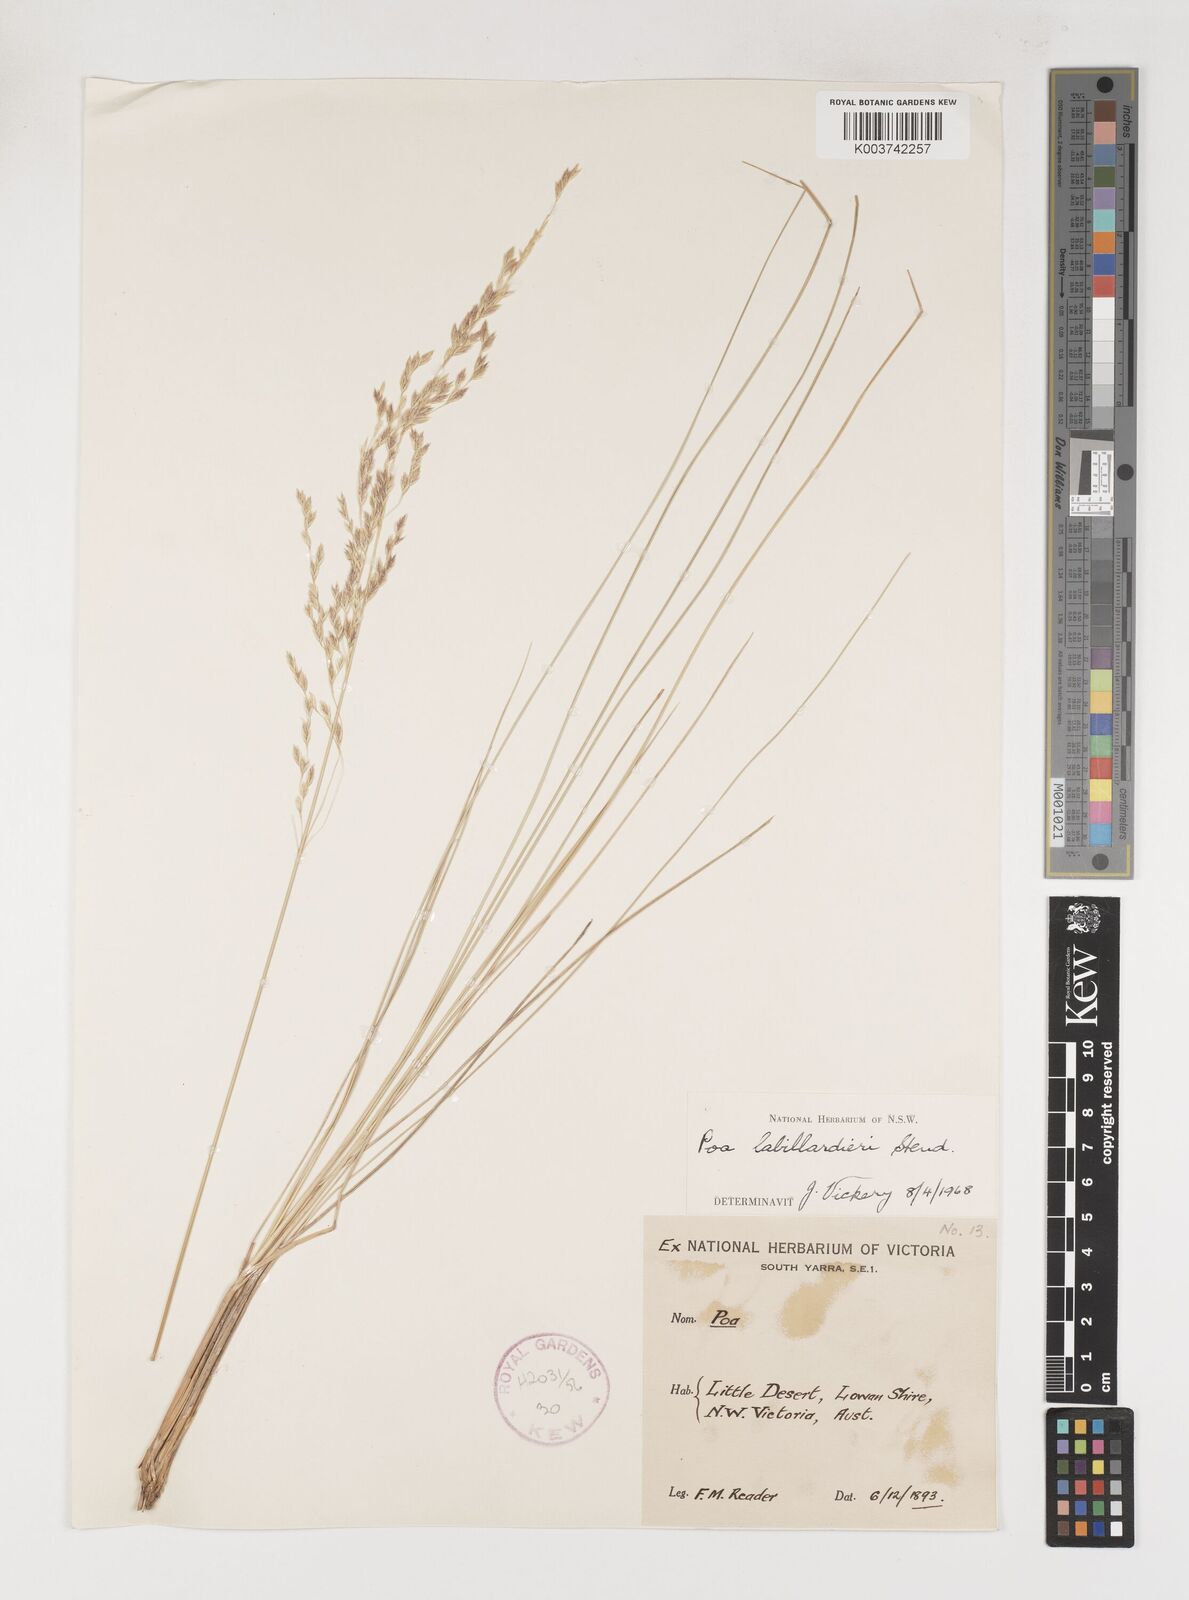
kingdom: Plantae
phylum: Tracheophyta
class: Liliopsida
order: Poales
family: Poaceae
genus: Poa
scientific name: Poa labillardierei
